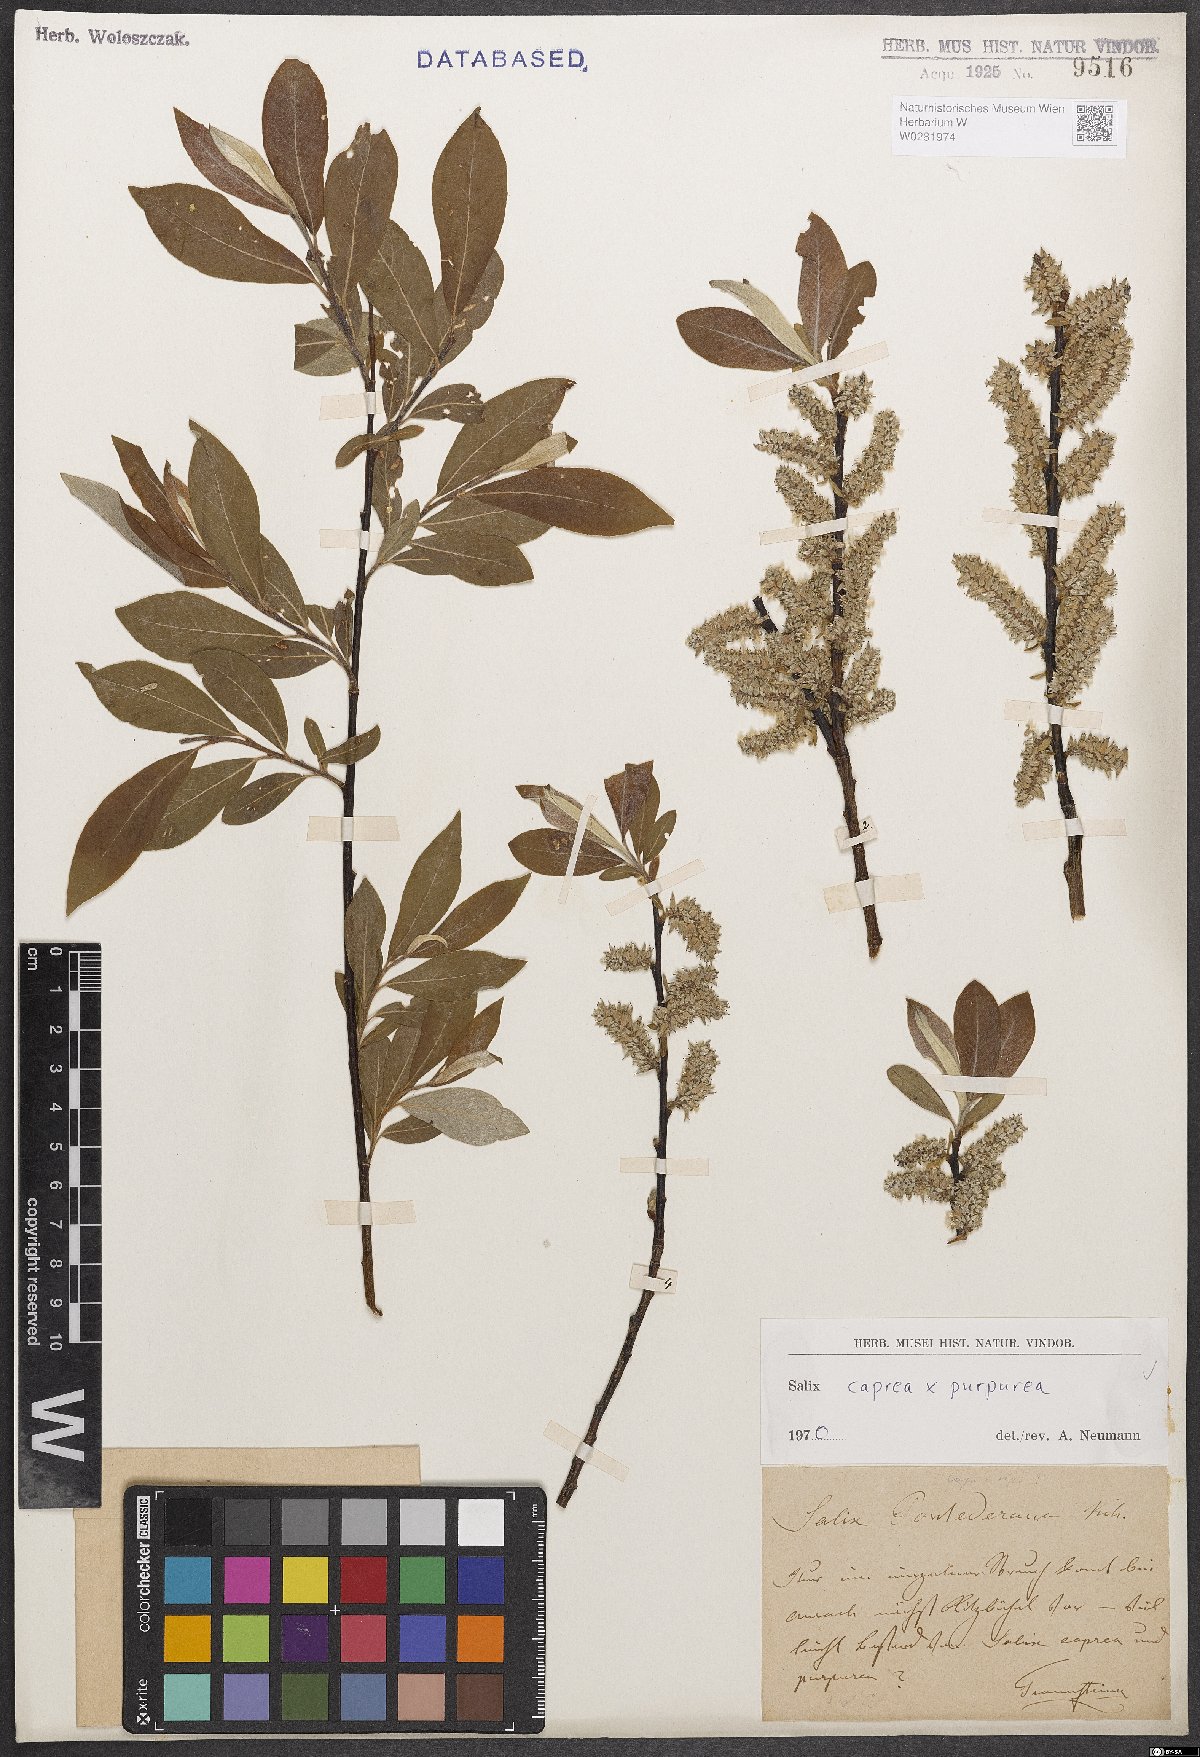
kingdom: Plantae
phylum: Tracheophyta
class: Magnoliopsida
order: Malpighiales
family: Salicaceae
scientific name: Salicaceae
